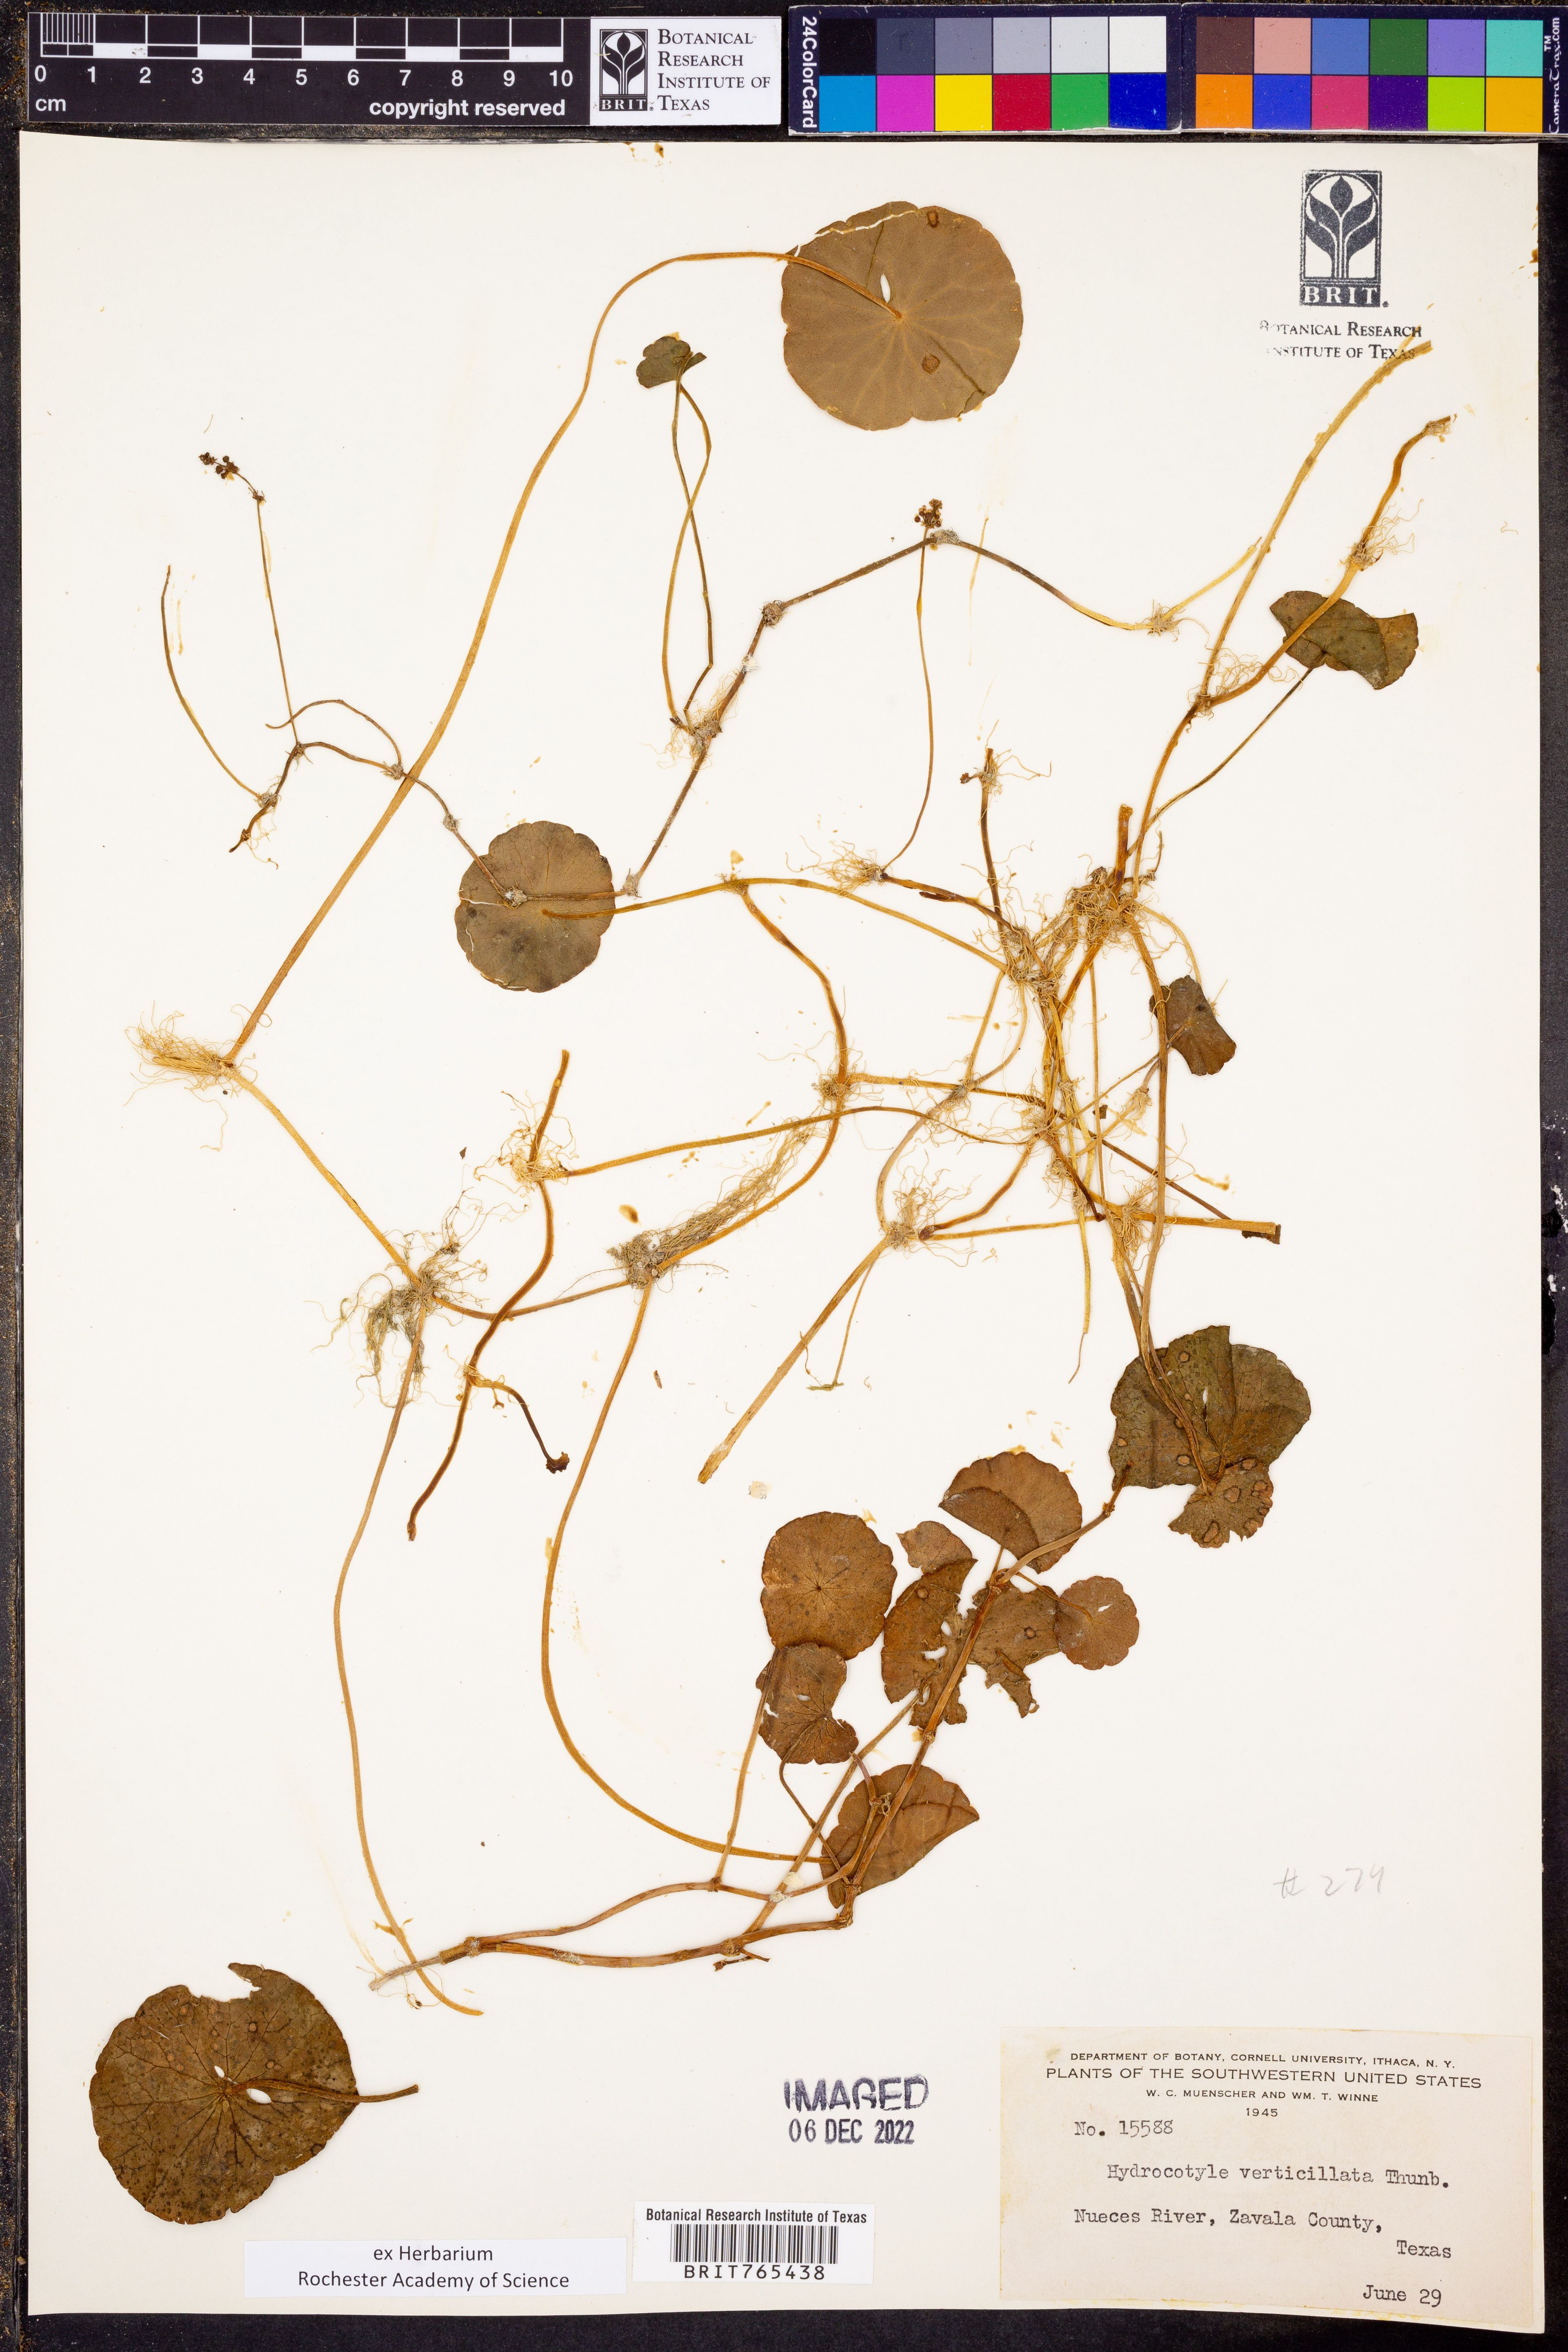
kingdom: Plantae
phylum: Tracheophyta
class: Magnoliopsida
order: Apiales
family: Araliaceae
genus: Hydrocotyle
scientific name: Hydrocotyle verticillata
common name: Whorled marshpennywort
